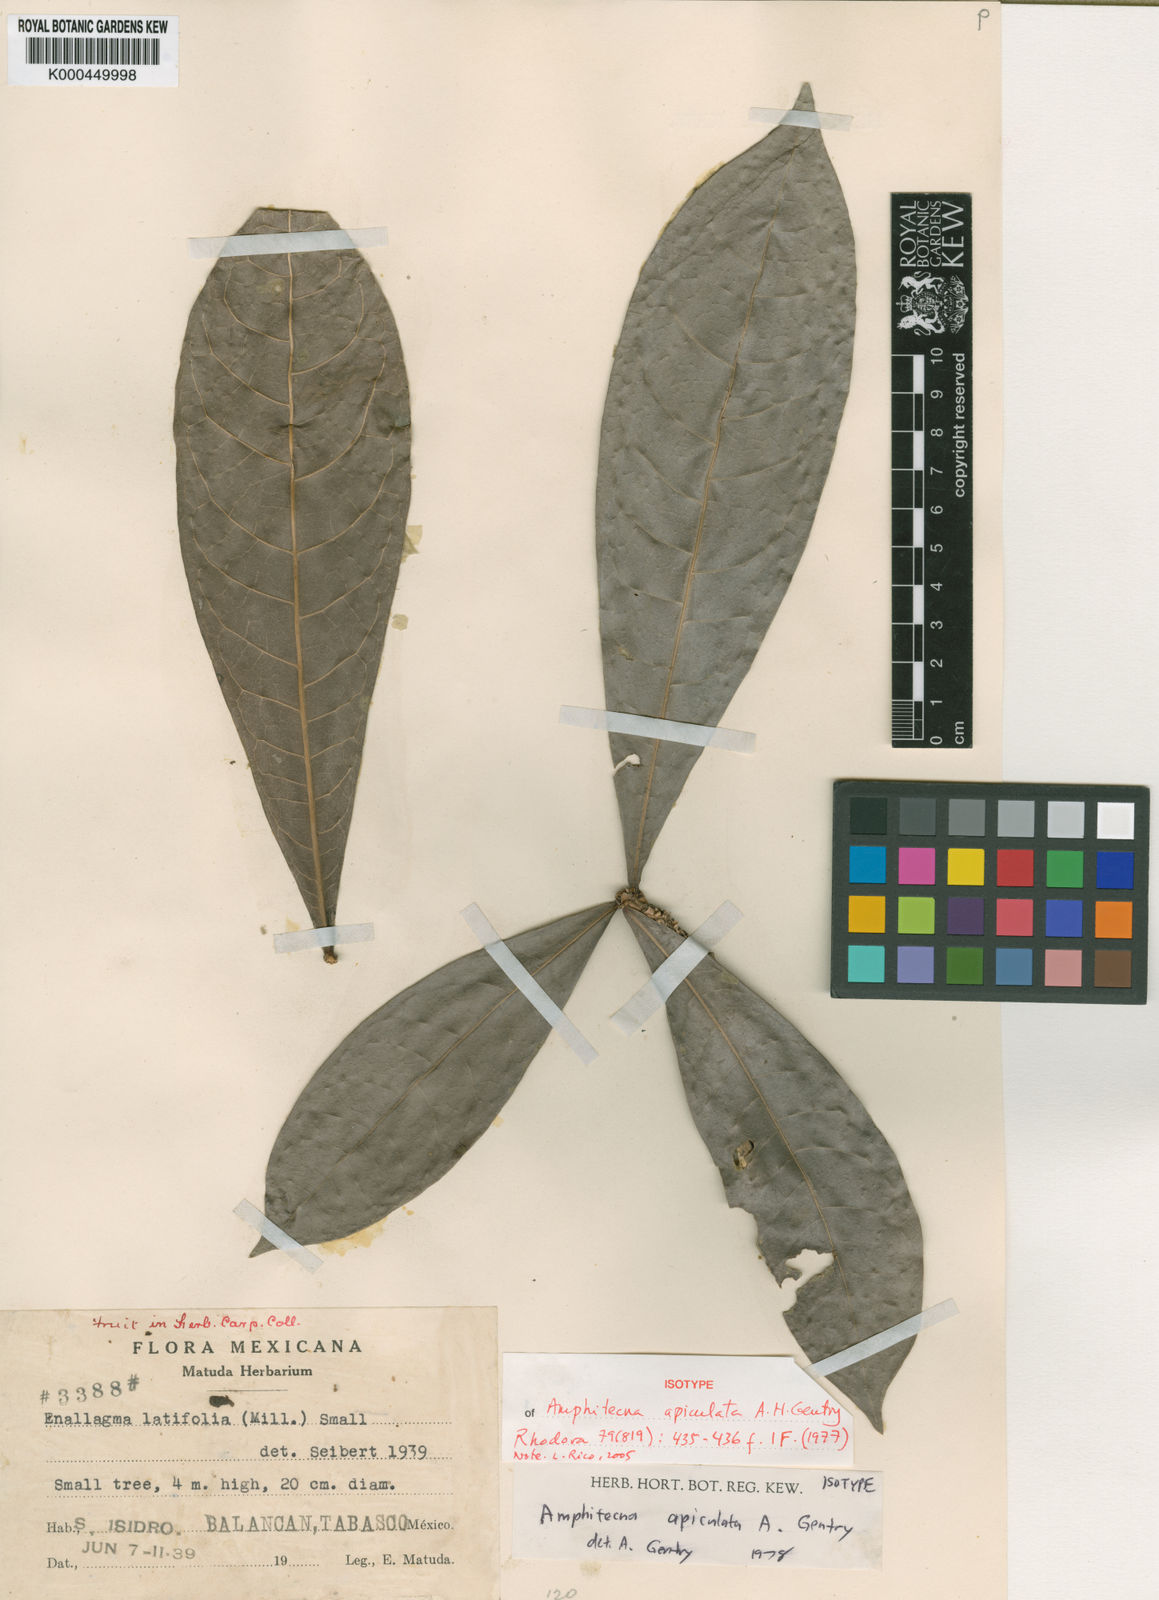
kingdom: Plantae
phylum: Tracheophyta
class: Magnoliopsida
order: Lamiales
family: Bignoniaceae
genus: Amphitecna
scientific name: Amphitecna apiculata
